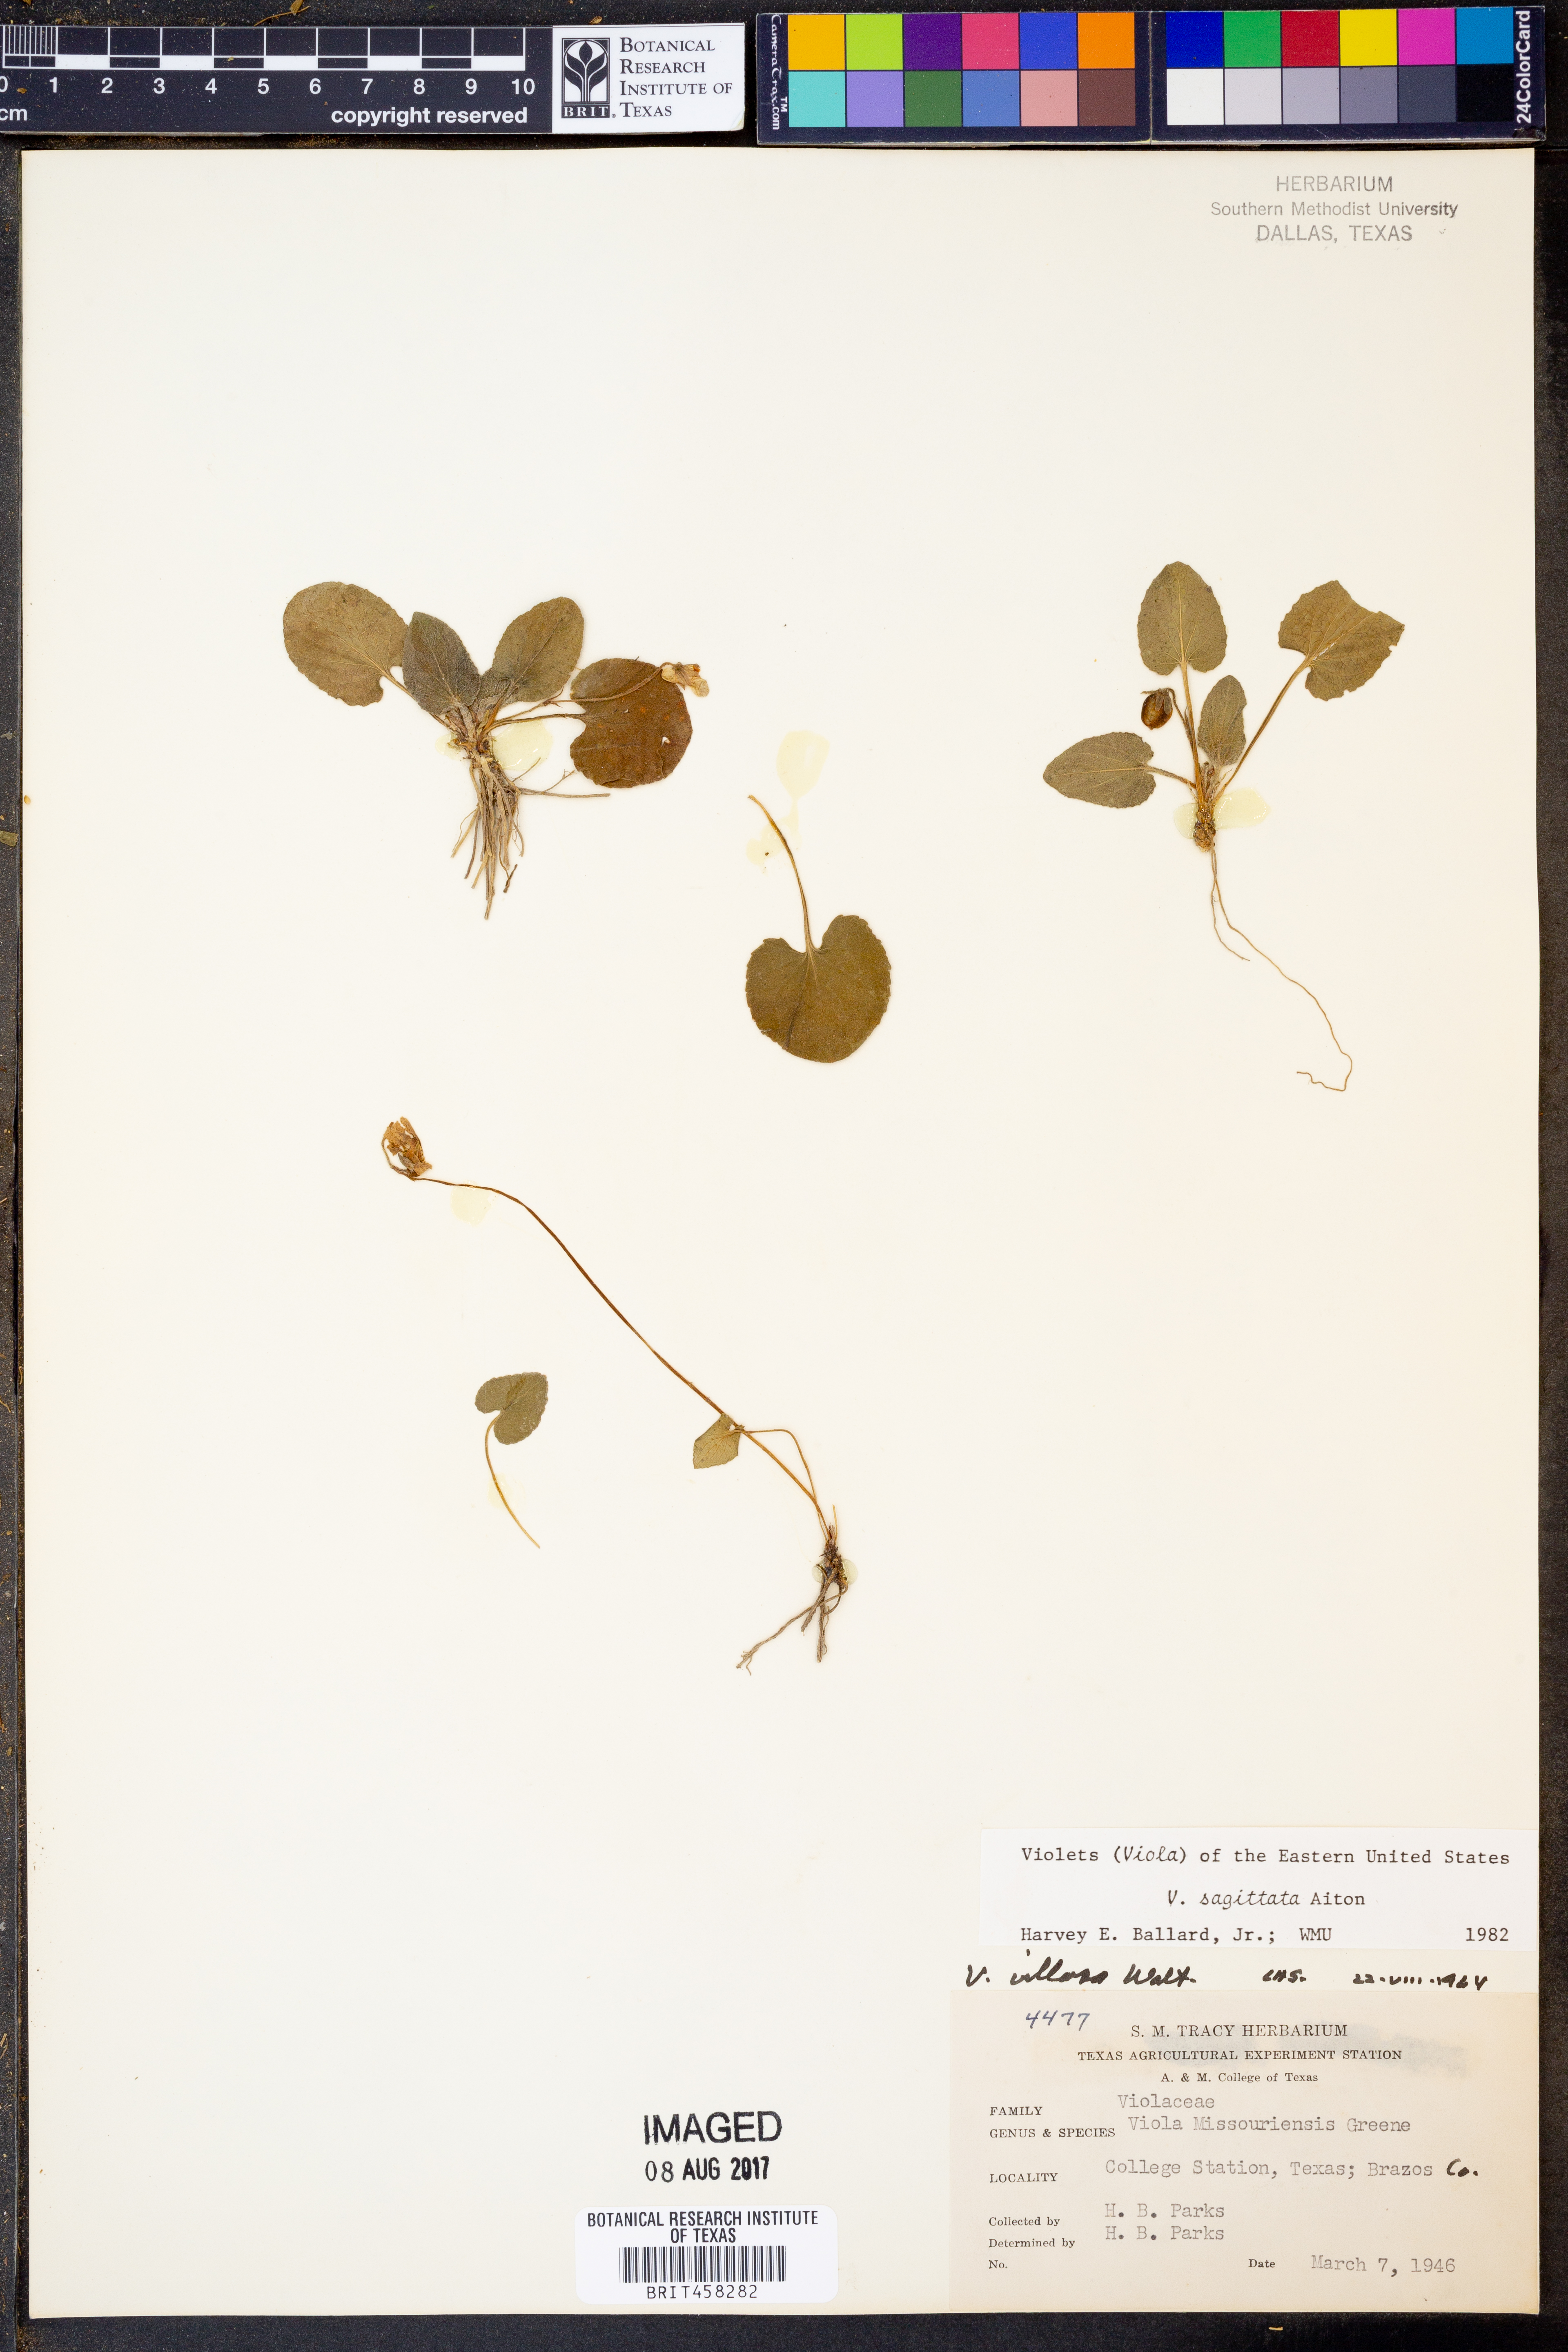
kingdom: Plantae
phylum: Tracheophyta
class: Magnoliopsida
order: Malpighiales
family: Violaceae
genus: Viola
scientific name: Viola sagittata
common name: Arrowhead violet
